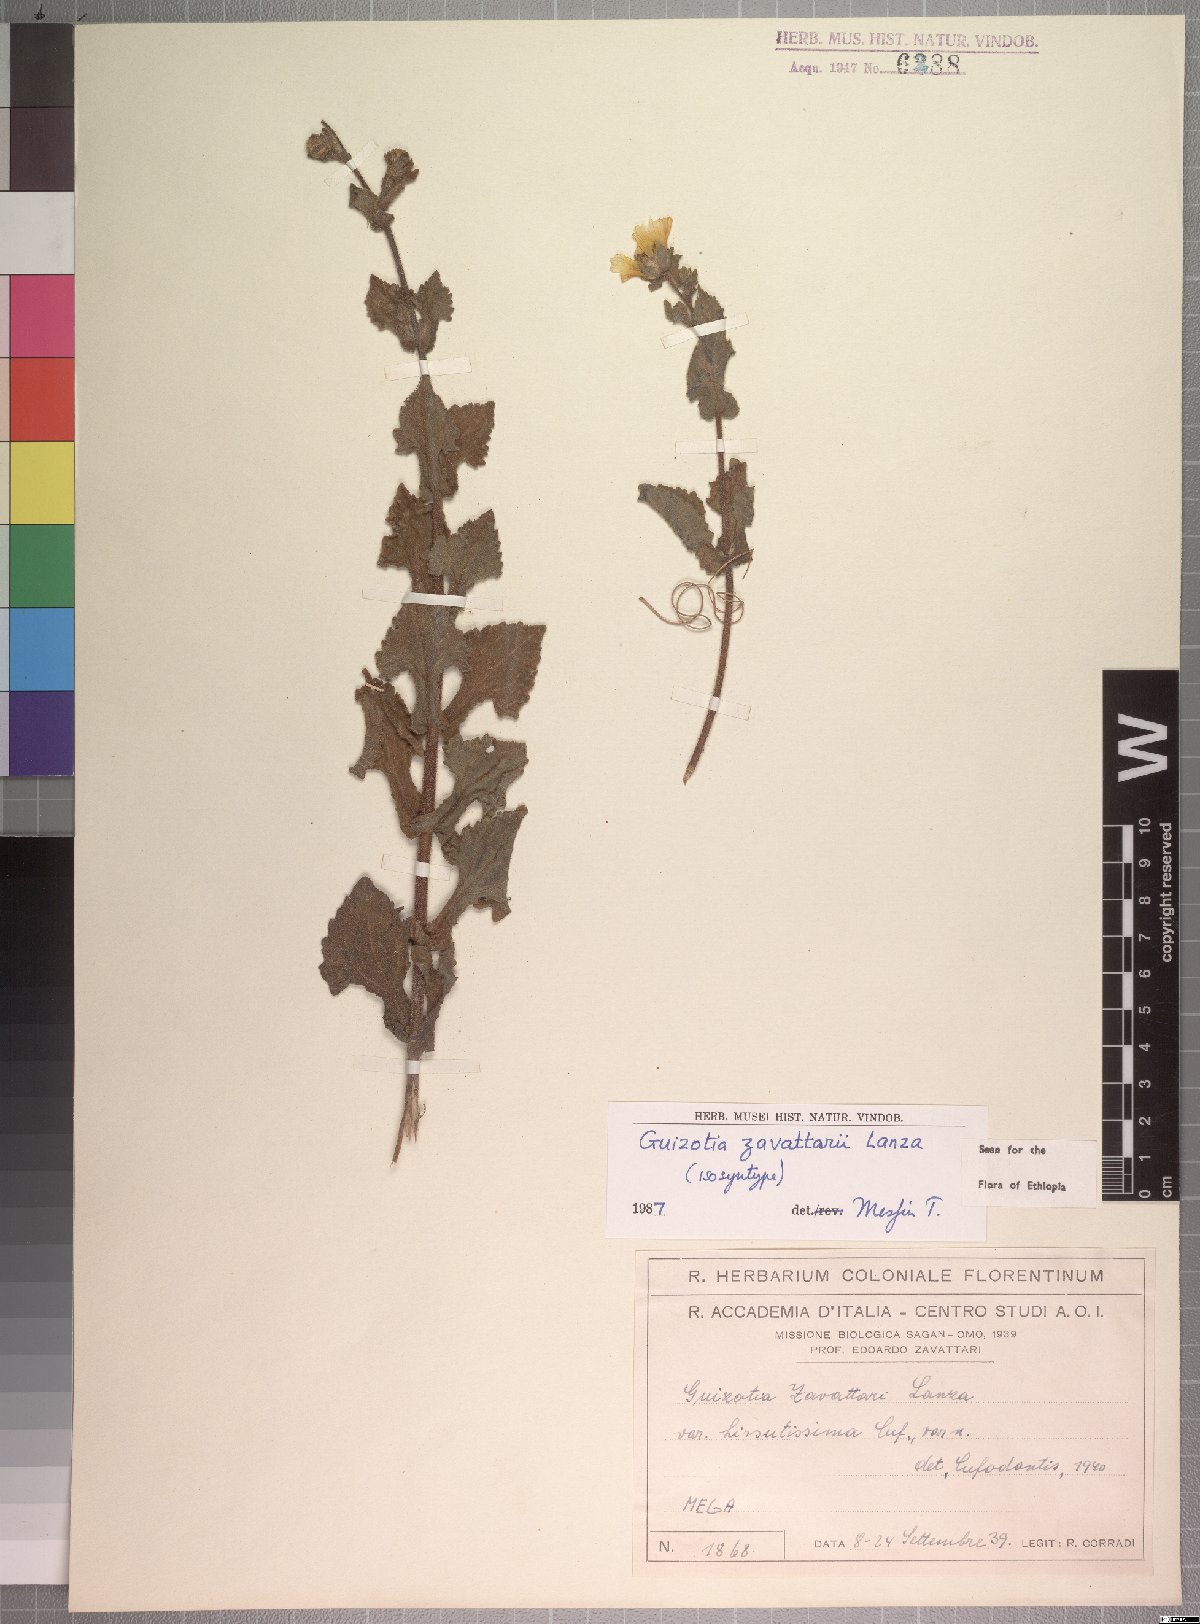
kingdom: Plantae
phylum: Tracheophyta
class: Magnoliopsida
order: Asterales
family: Asteraceae
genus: Guizotia
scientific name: Guizotia zavattarii
